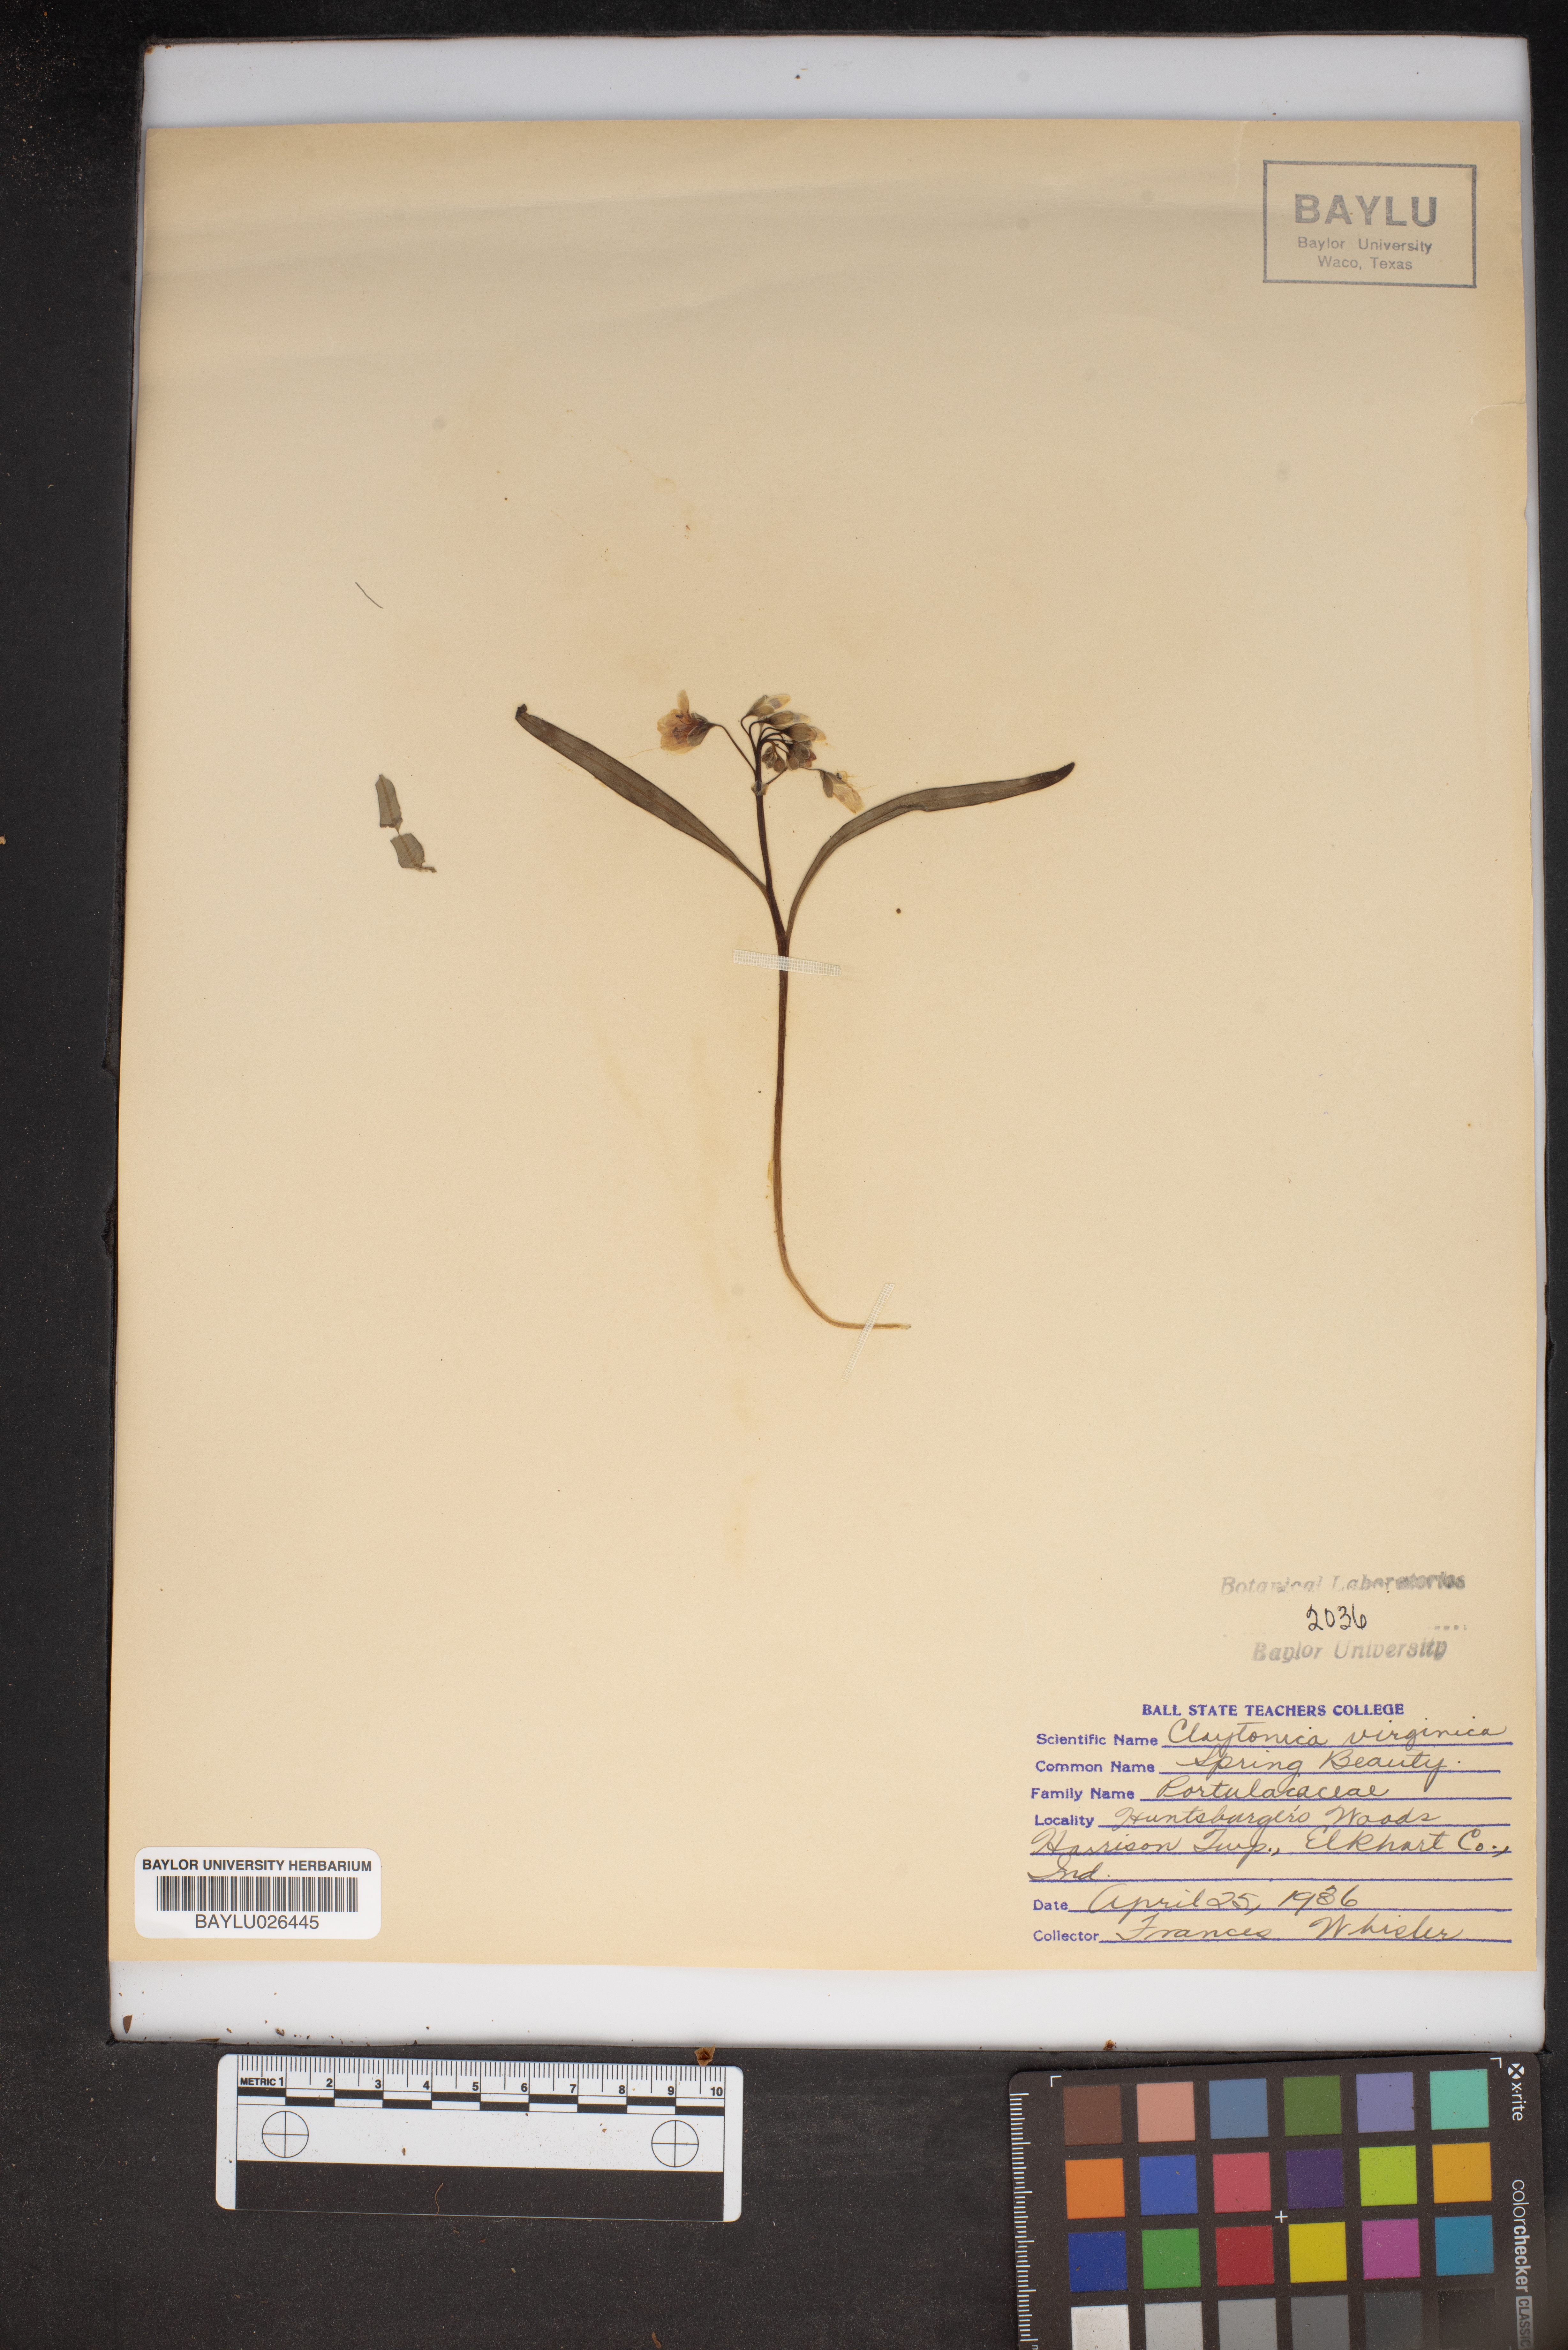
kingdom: Plantae
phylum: Tracheophyta
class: Magnoliopsida
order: Caryophyllales
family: Montiaceae
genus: Claytonia
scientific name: Claytonia virginica
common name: Virginia springbeauty
